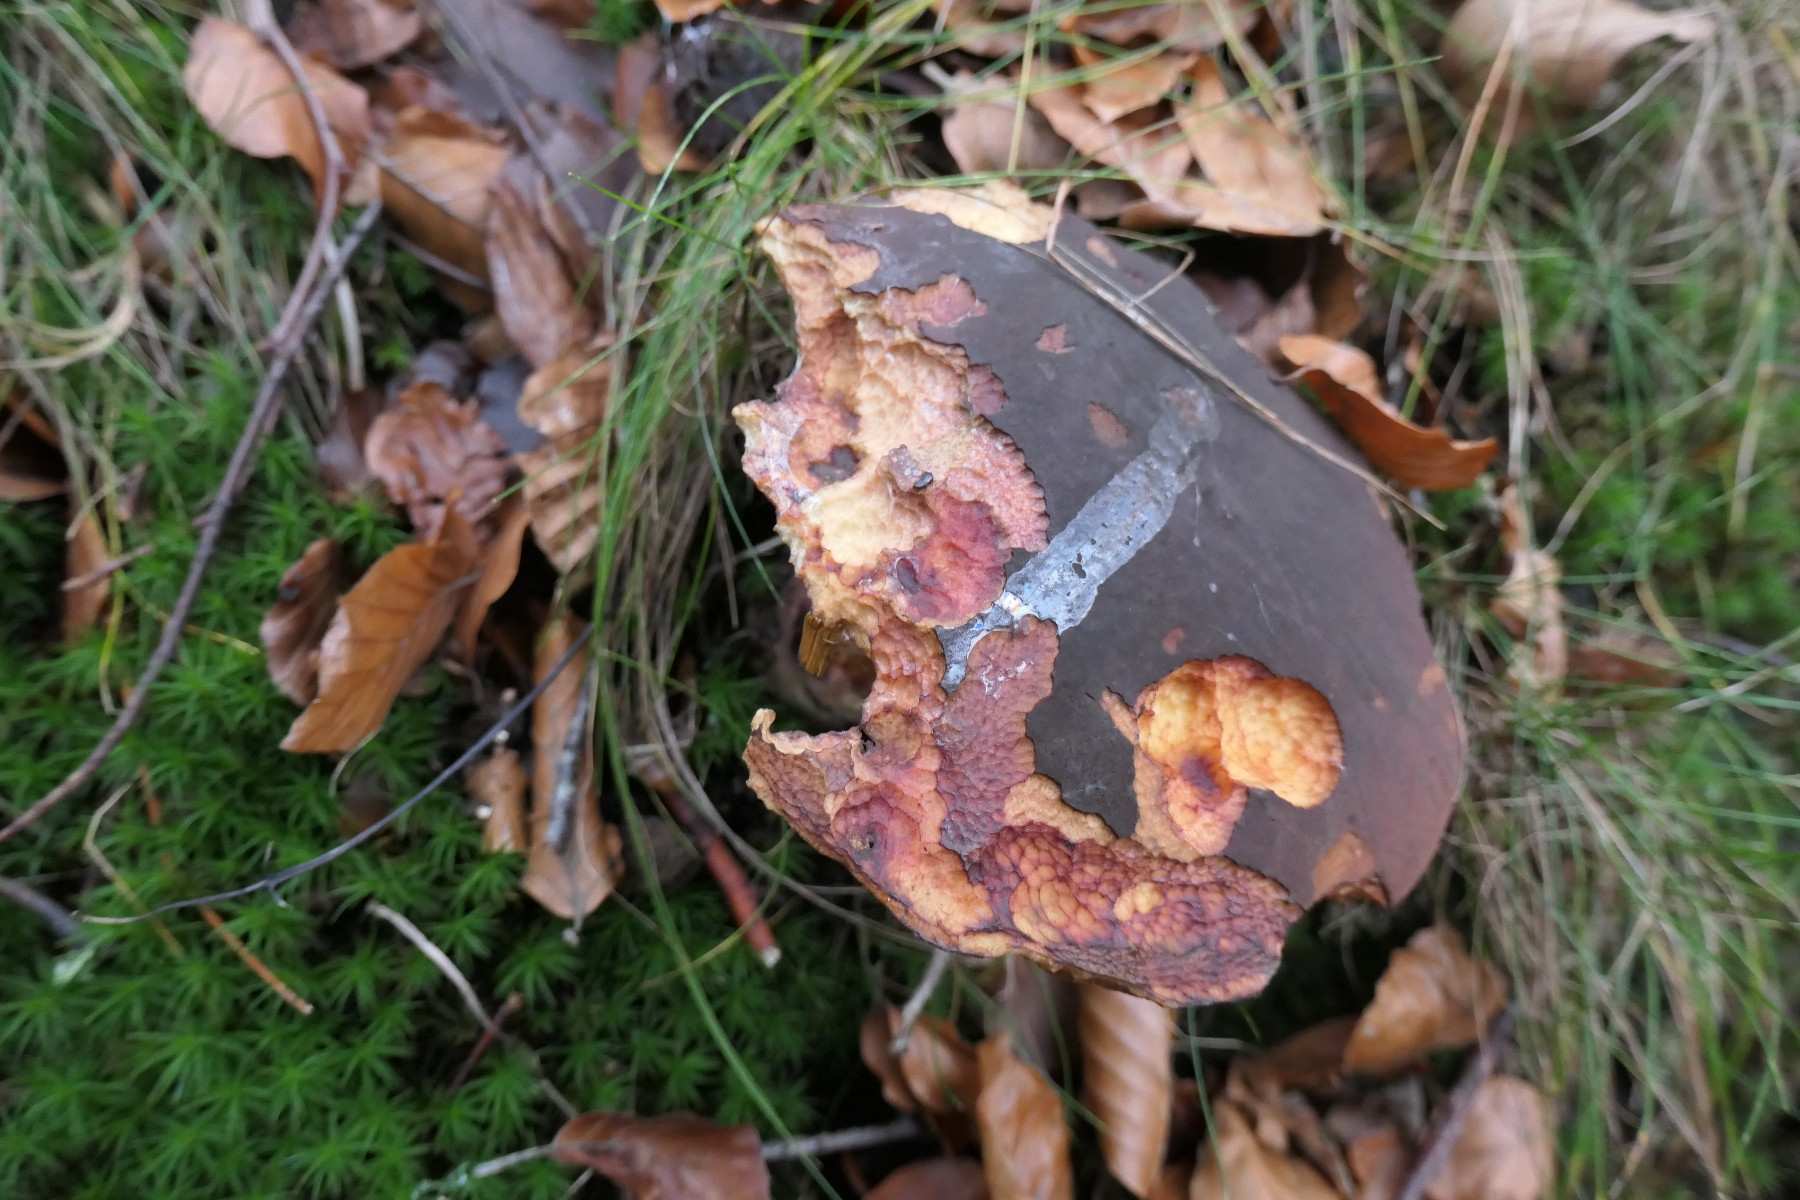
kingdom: Fungi
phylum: Basidiomycota
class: Agaricomycetes
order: Boletales
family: Boletaceae
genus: Neoboletus
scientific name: Neoboletus erythropus
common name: punktstokket indigorørhat
